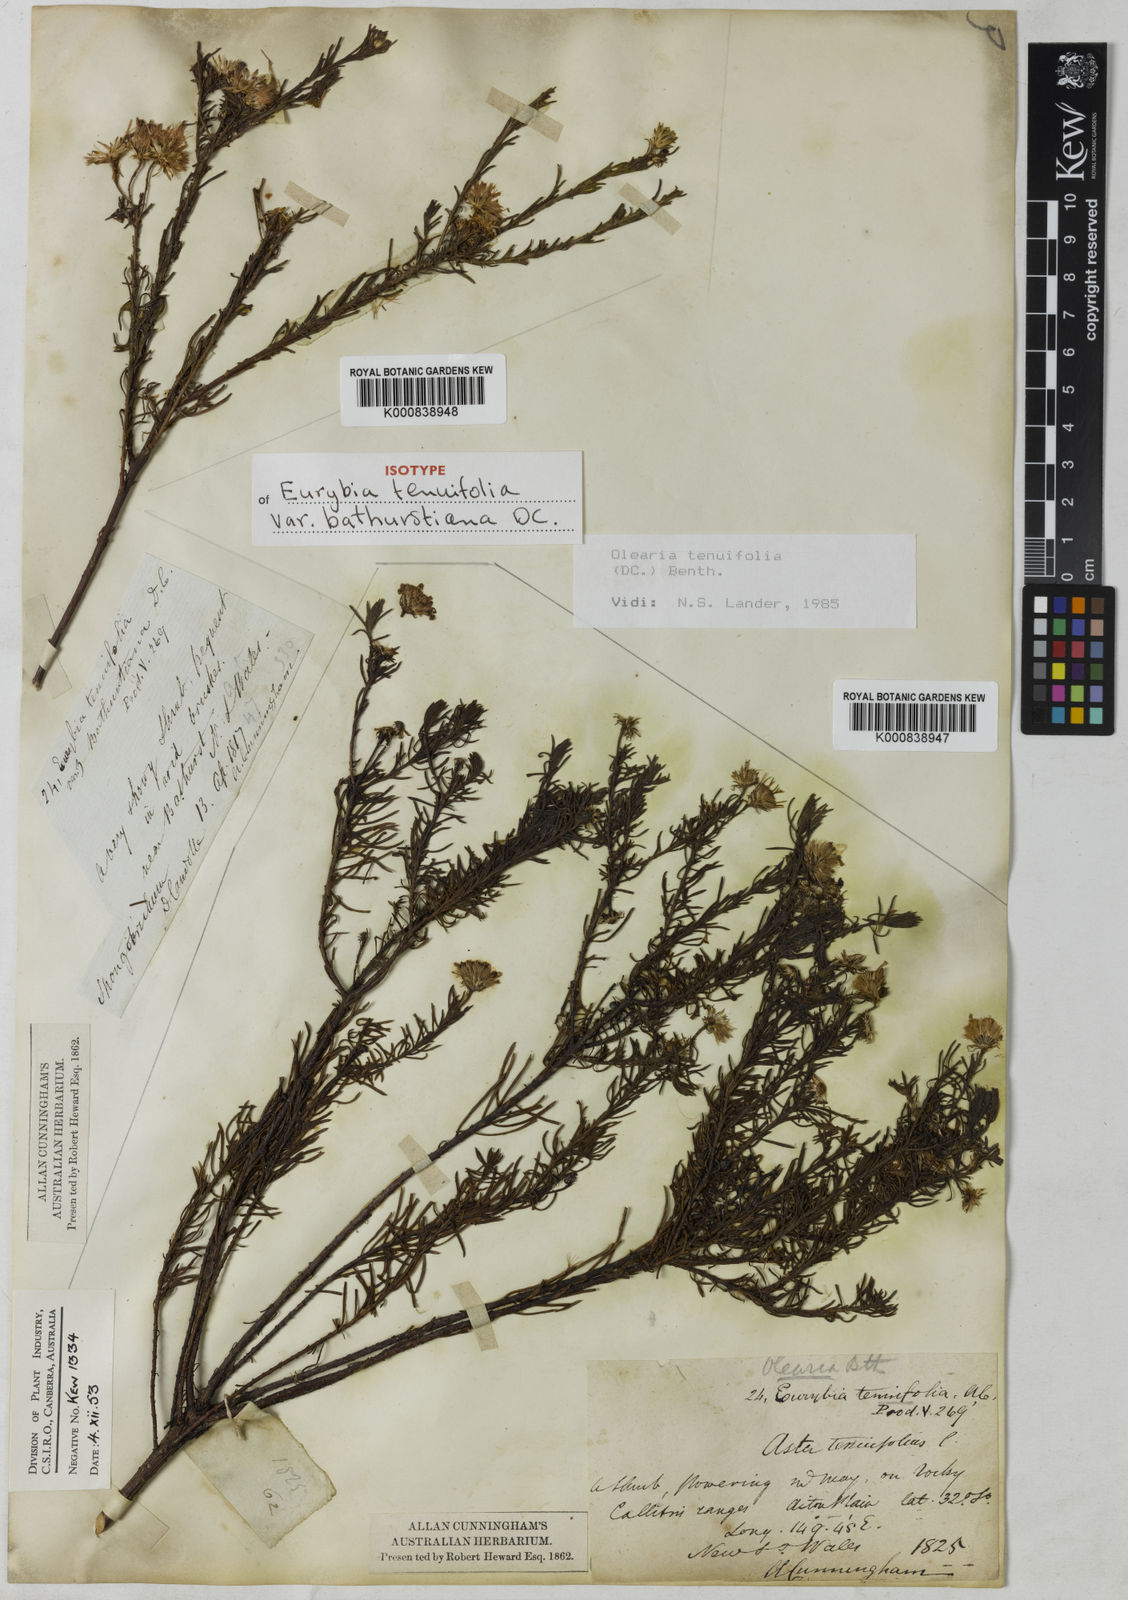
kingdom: Plantae
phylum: Tracheophyta
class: Magnoliopsida
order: Asterales
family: Asteraceae
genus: Olearia
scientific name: Olearia tenuifolia
